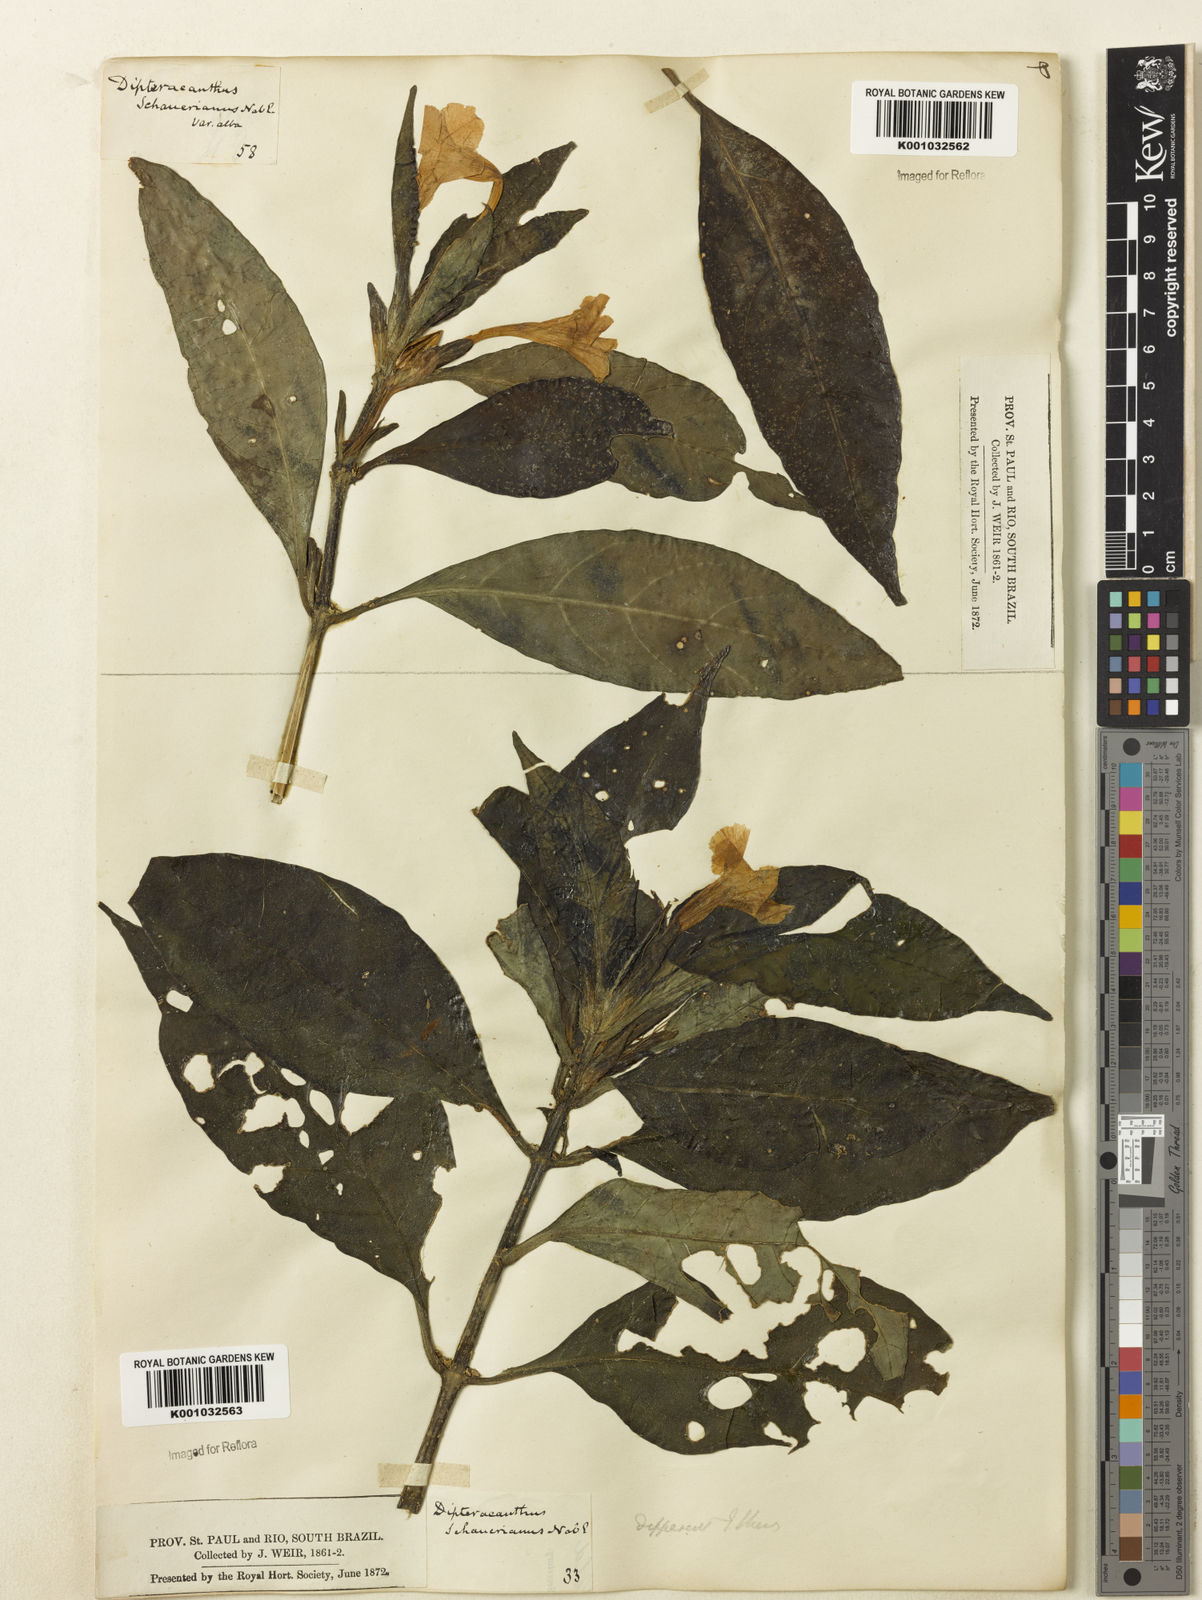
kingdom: Plantae
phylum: Tracheophyta
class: Magnoliopsida
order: Lamiales
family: Acanthaceae
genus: Ruellia
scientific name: Ruellia
